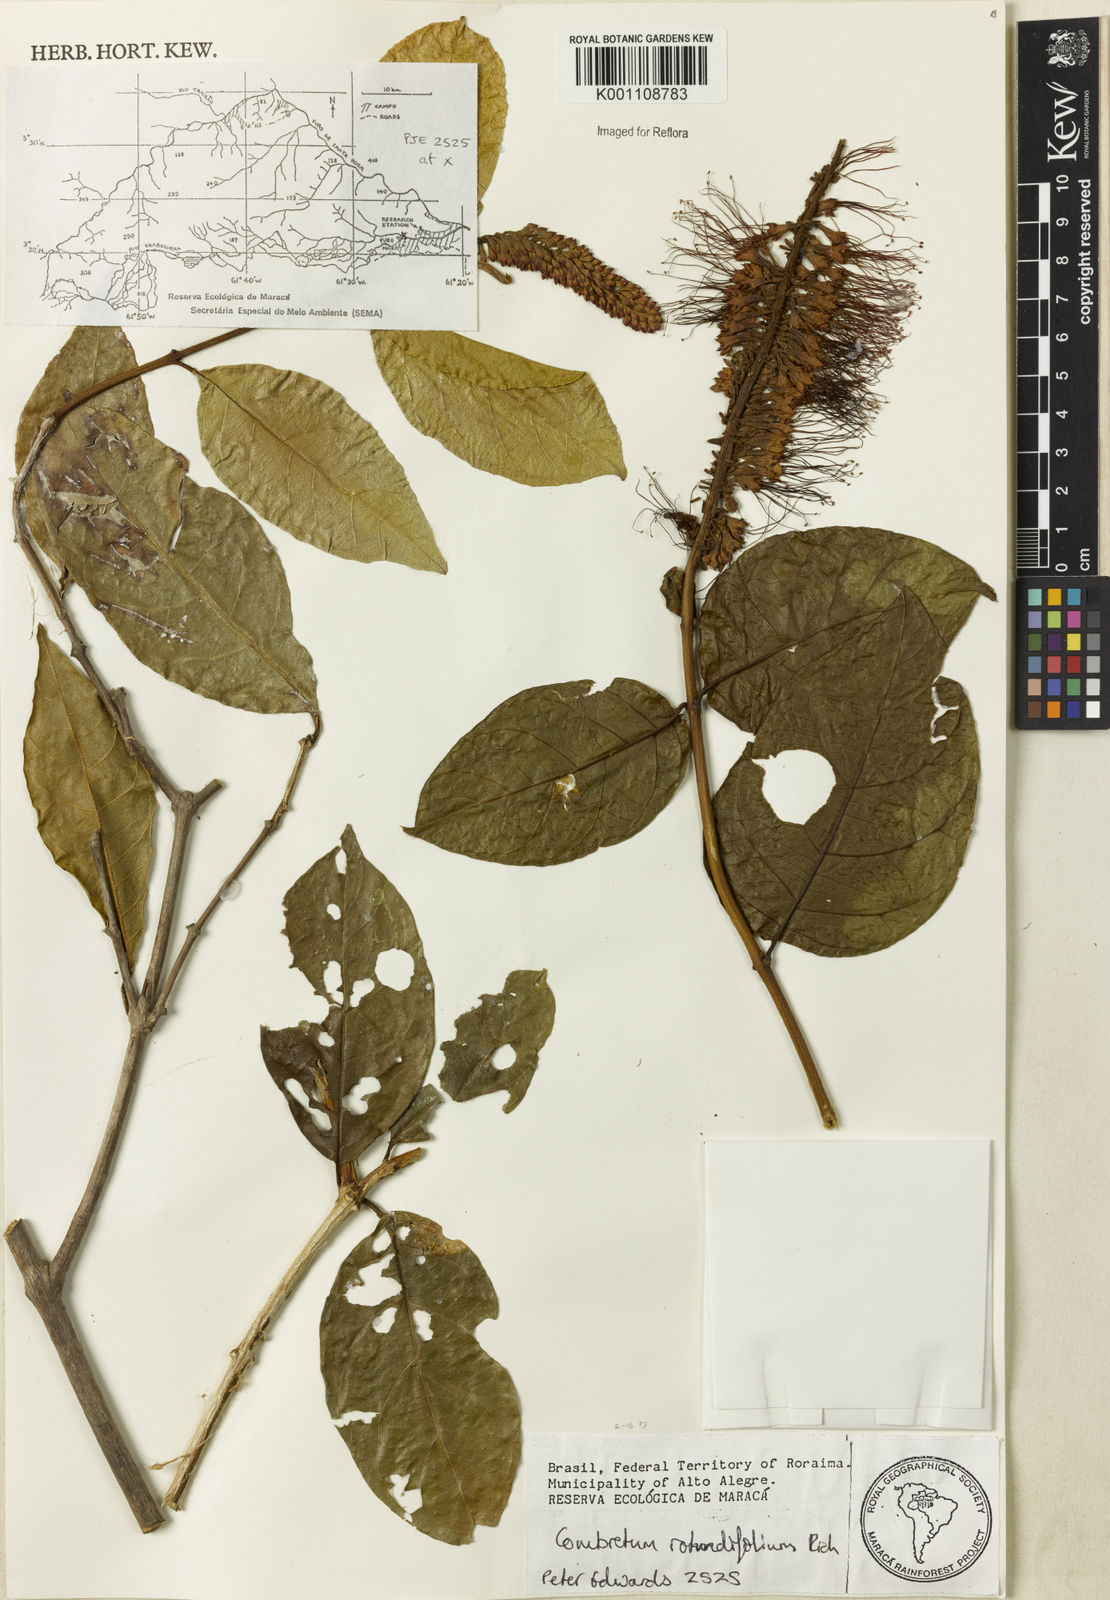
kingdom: Plantae
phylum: Tracheophyta
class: Magnoliopsida
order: Myrtales
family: Combretaceae
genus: Combretum
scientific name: Combretum rotundifolium
